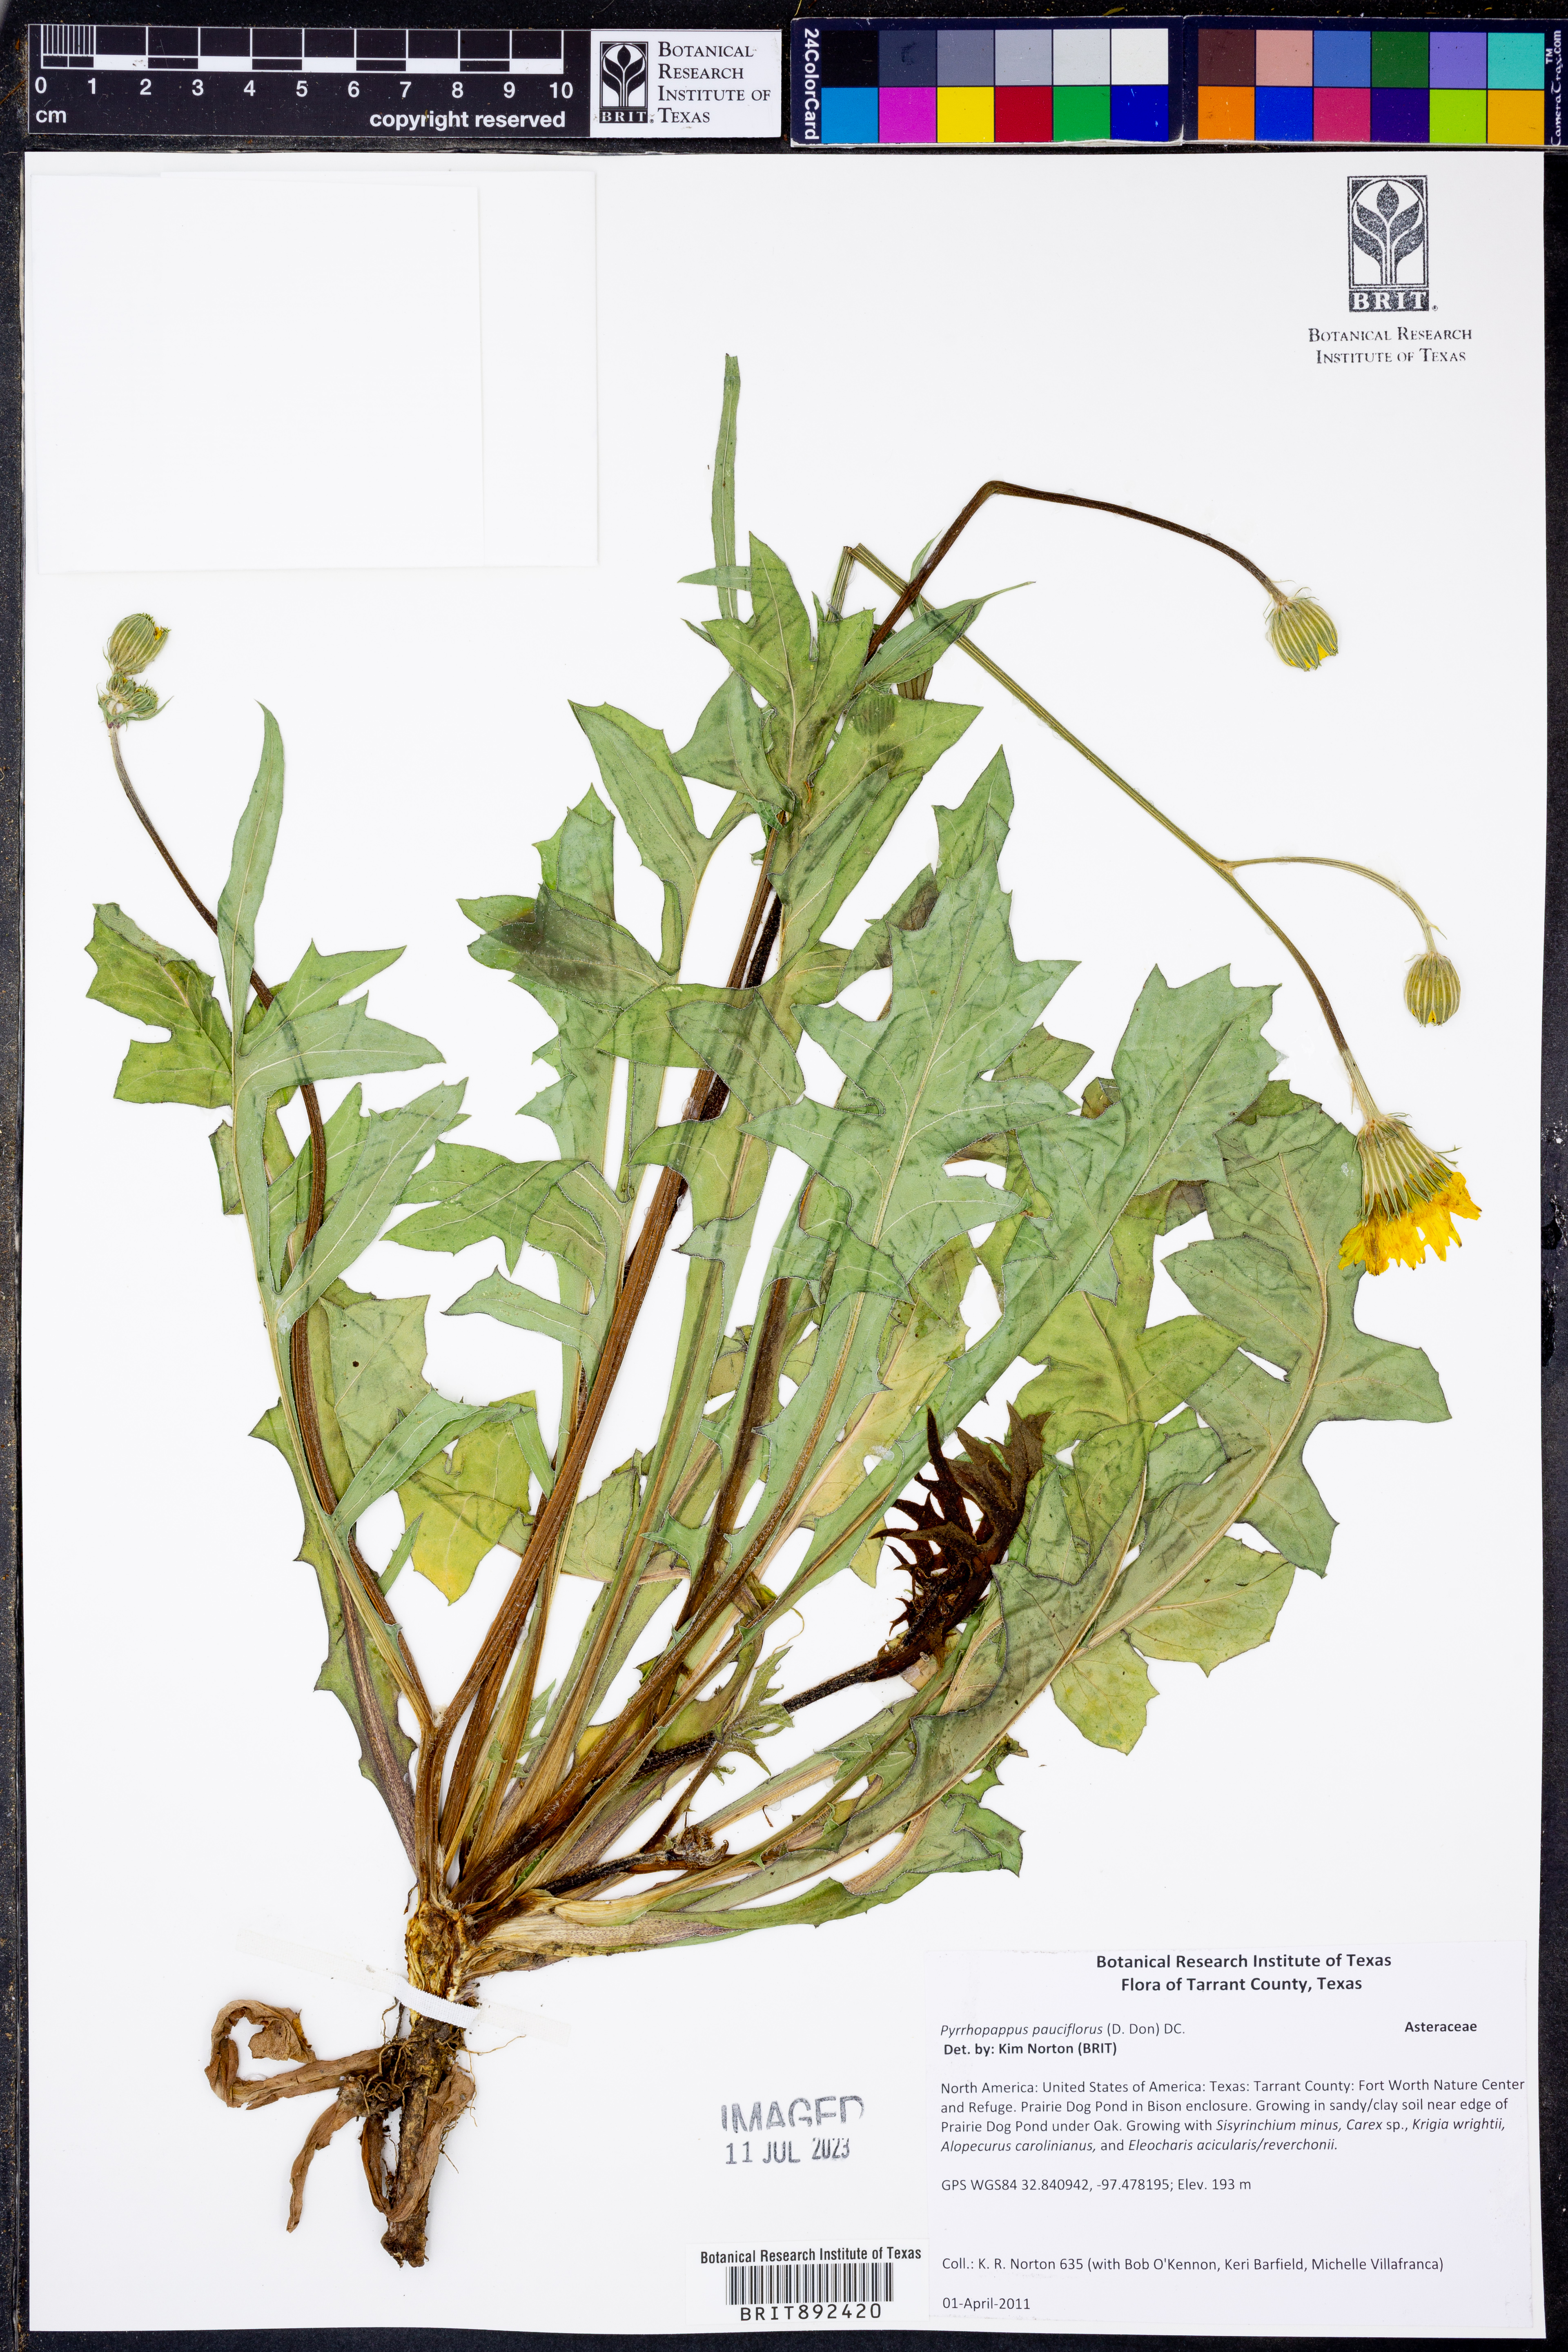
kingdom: Plantae
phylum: Tracheophyta
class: Magnoliopsida
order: Asterales
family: Asteraceae
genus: Pyrrhopappus
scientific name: Pyrrhopappus pauciflorus
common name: Texas false dandelion
